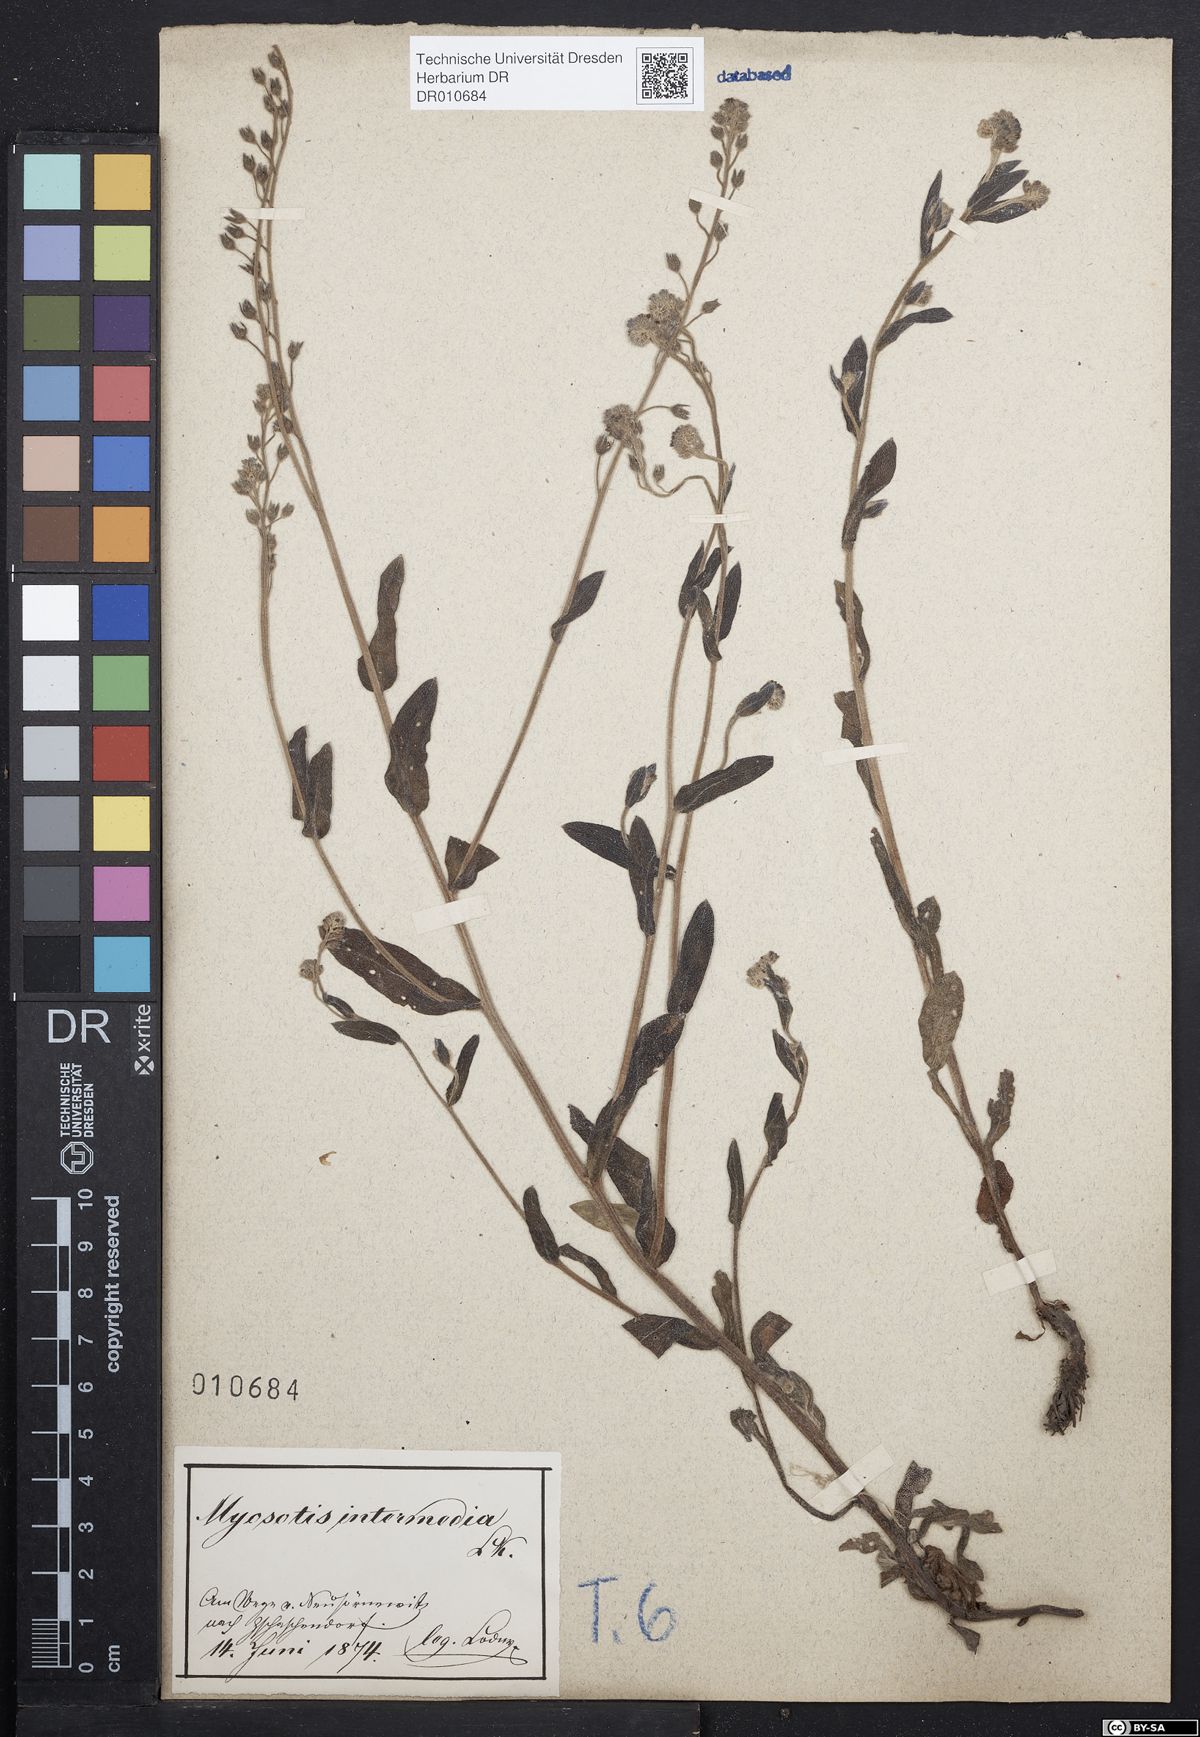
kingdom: Plantae
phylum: Tracheophyta
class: Magnoliopsida
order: Boraginales
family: Boraginaceae
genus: Myosotis
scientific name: Myosotis arvensis
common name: Field forget-me-not
